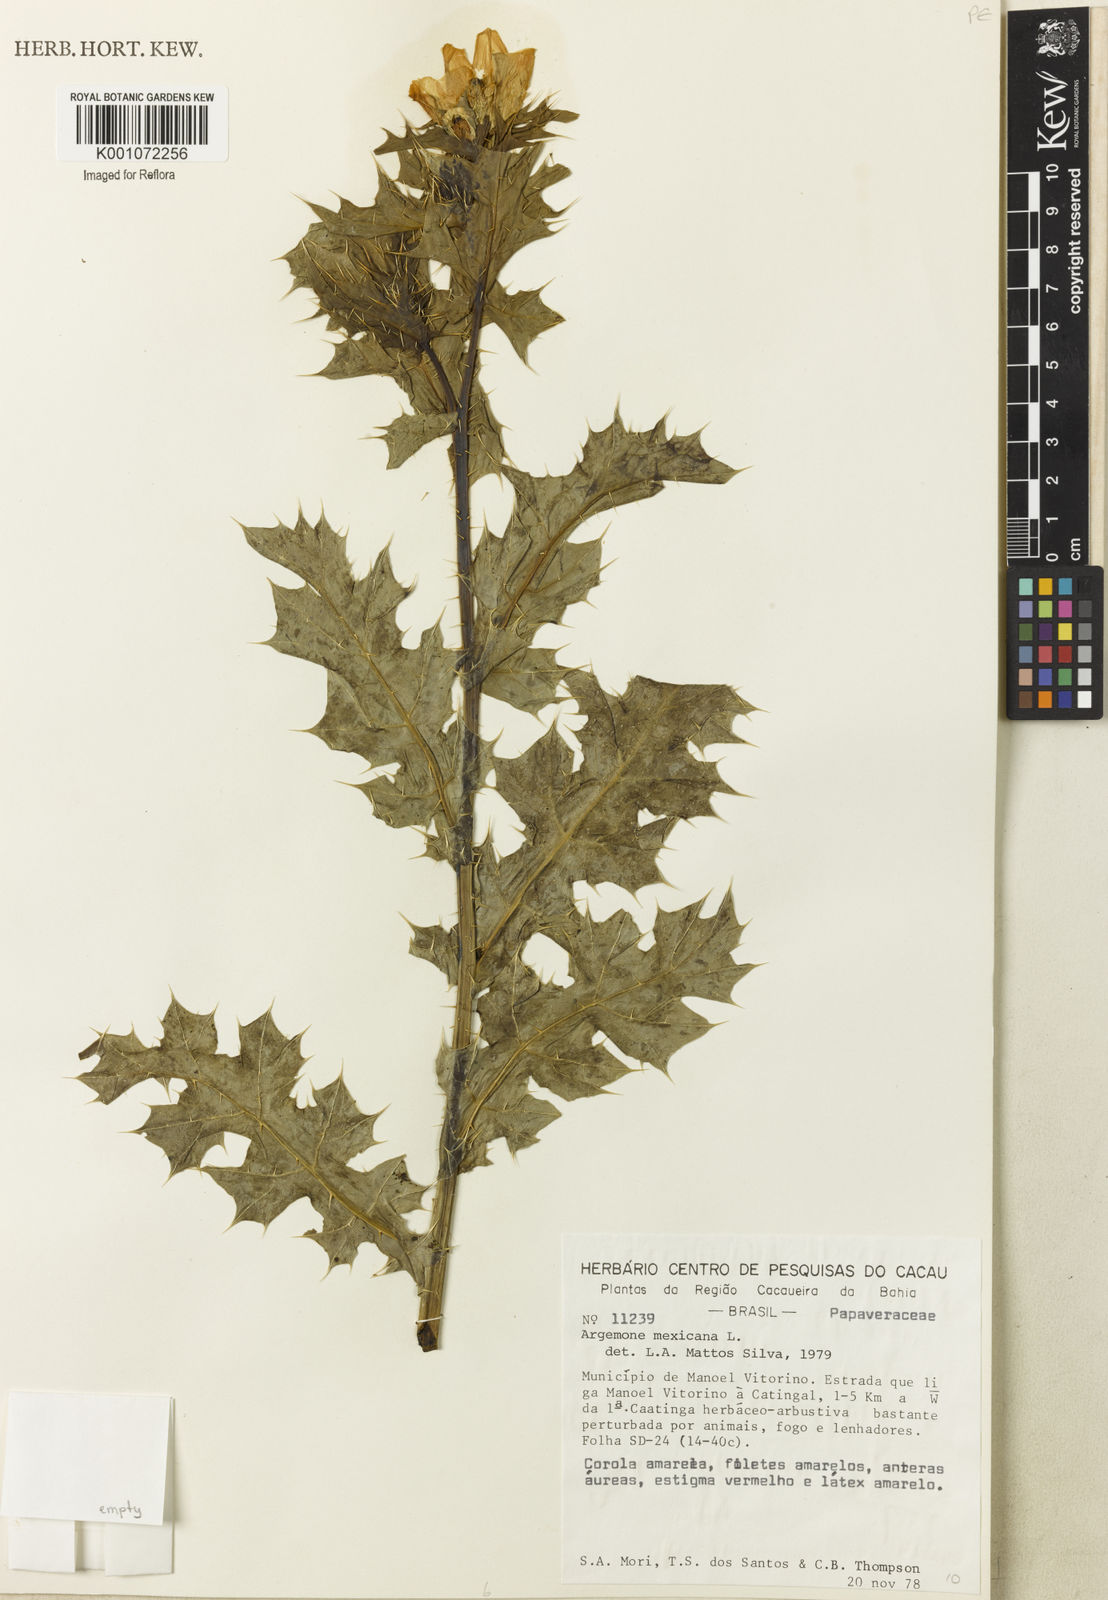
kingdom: Plantae
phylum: Tracheophyta
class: Magnoliopsida
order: Ranunculales
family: Papaveraceae
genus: Argemone
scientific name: Argemone mexicana
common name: Mexican poppy
